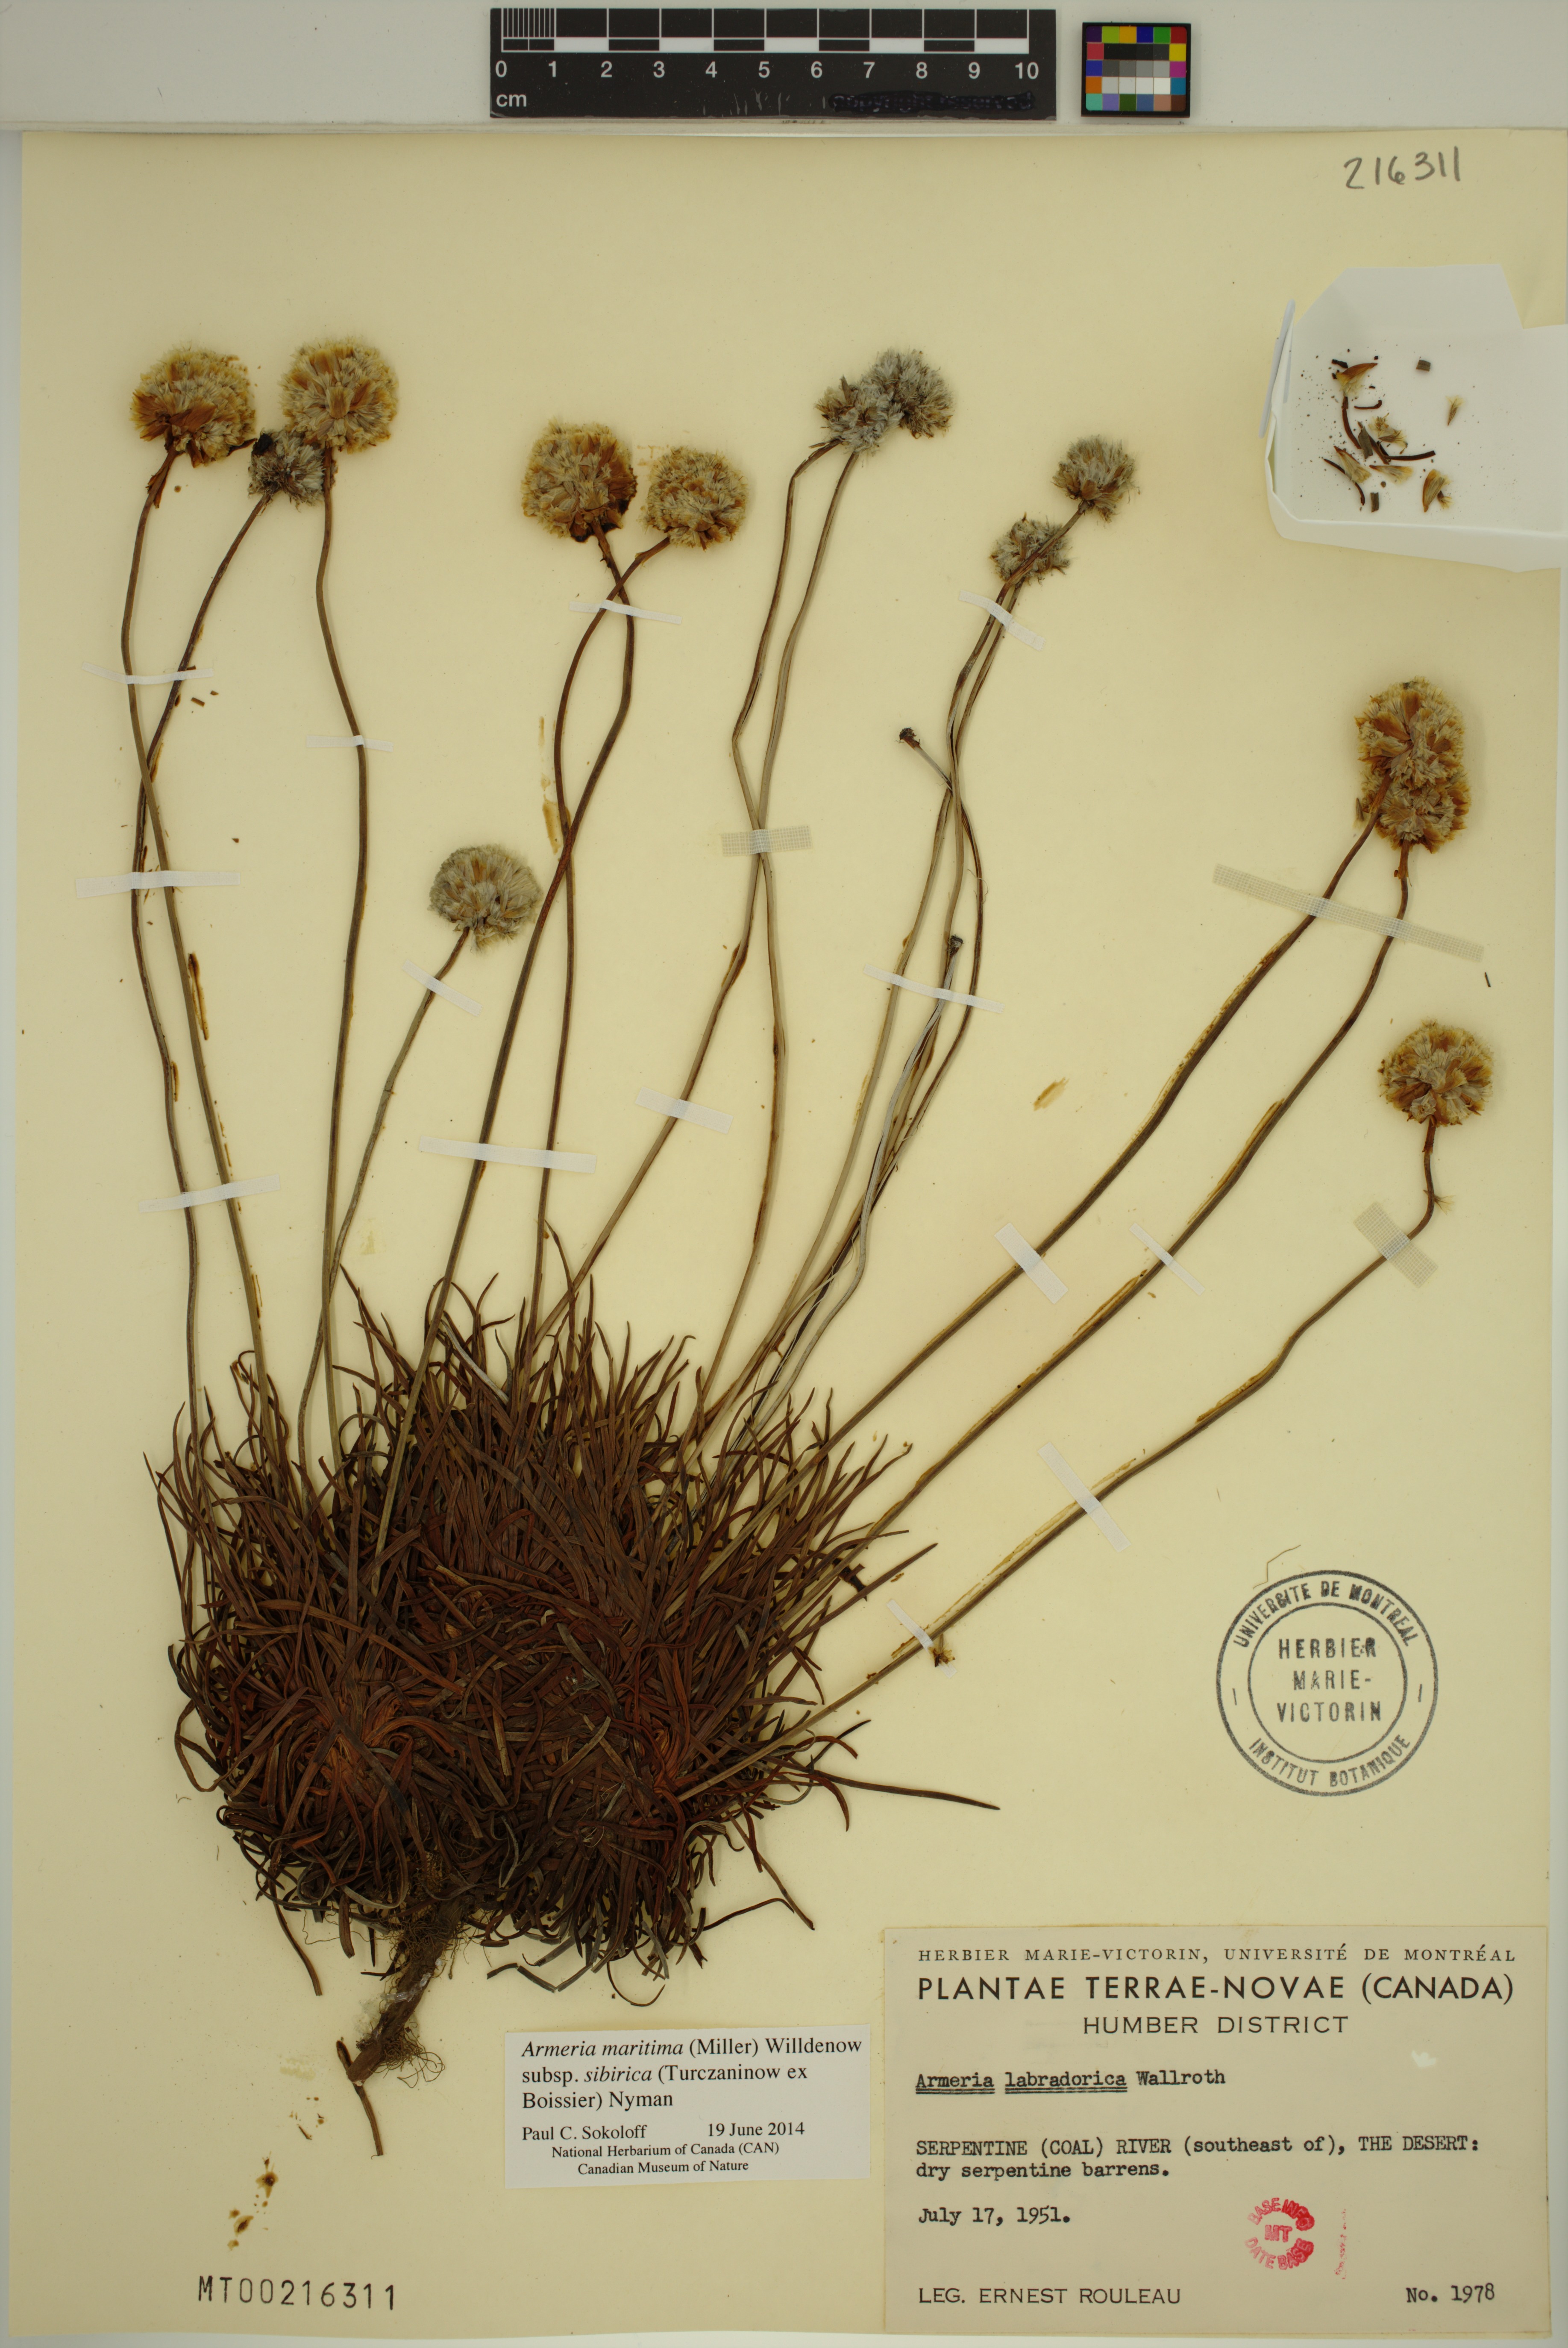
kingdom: Plantae
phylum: Tracheophyta
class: Magnoliopsida
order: Caryophyllales
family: Plumbaginaceae
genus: Armeria
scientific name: Armeria maritima
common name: Thrift
